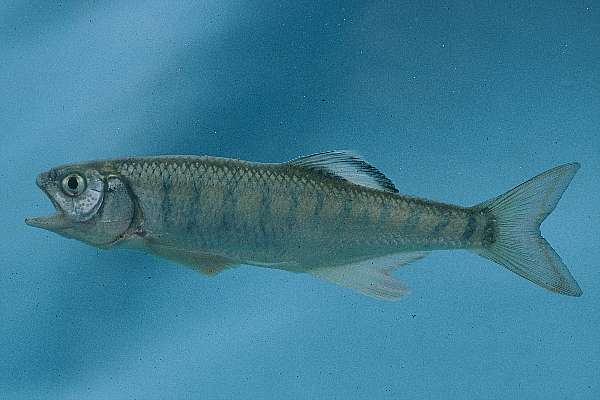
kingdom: Animalia
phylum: Chordata
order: Cypriniformes
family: Cyprinidae
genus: Opsaridium
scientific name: Opsaridium tweddleorum
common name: Dwarf sanjika
